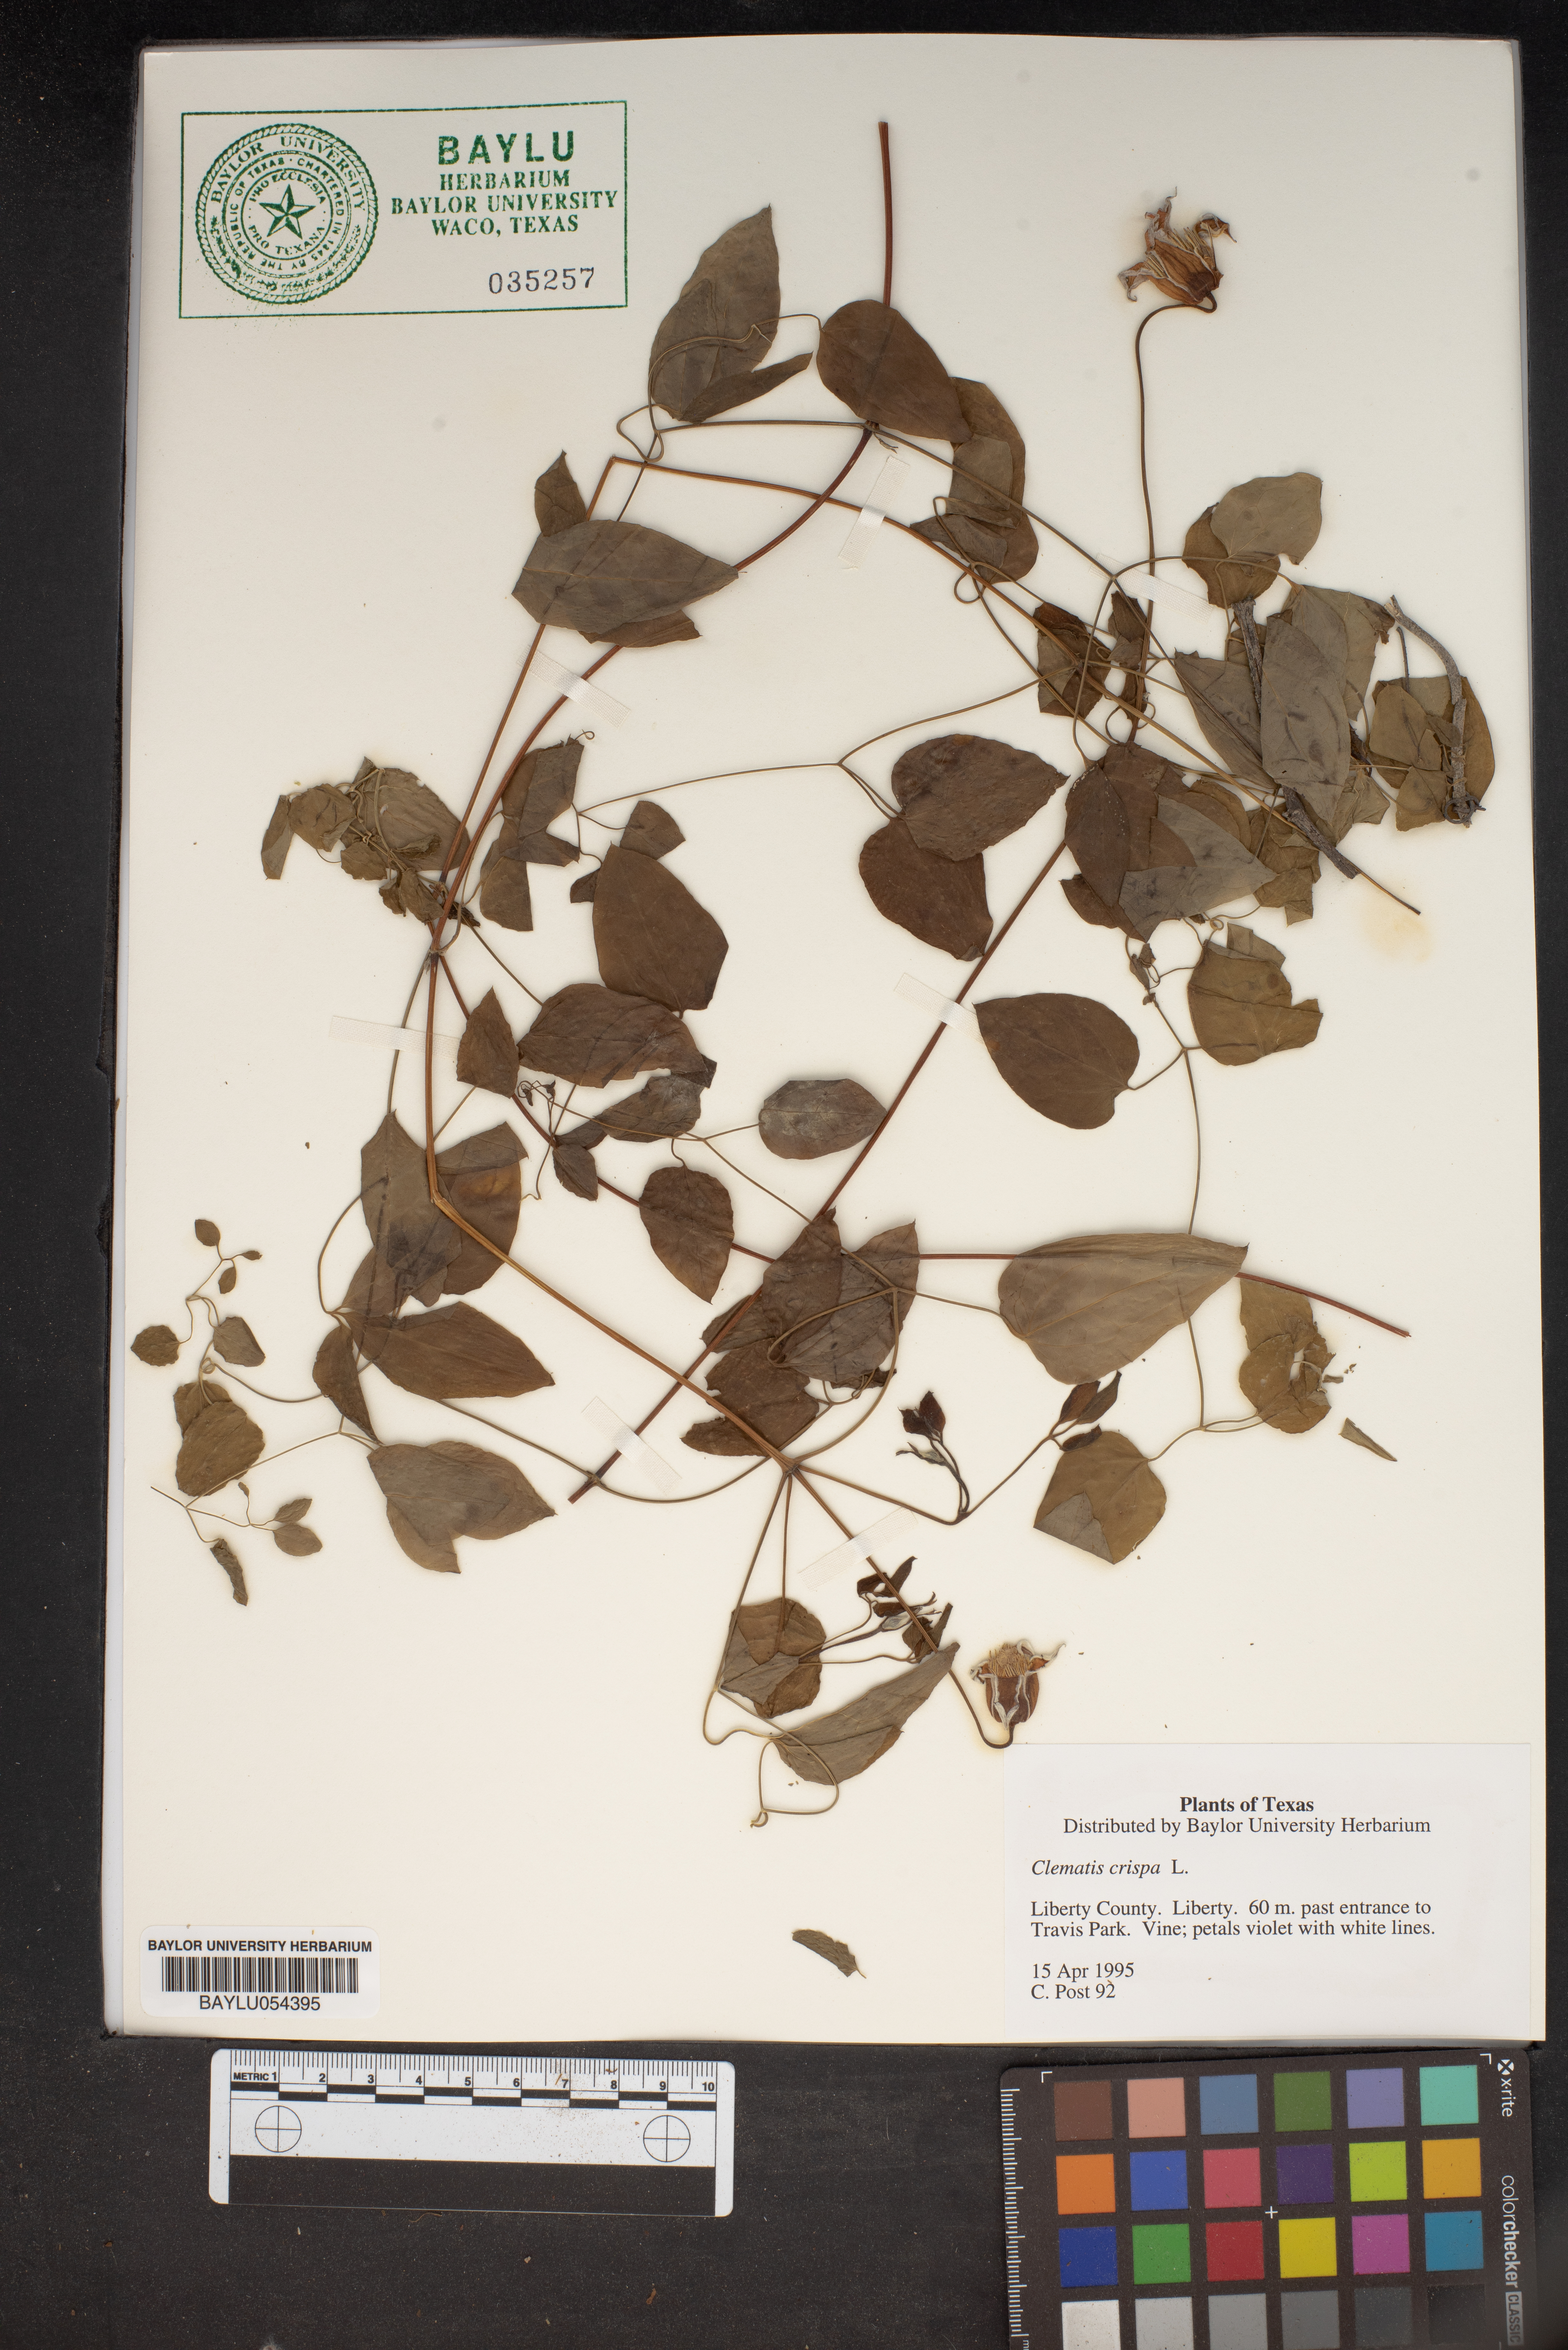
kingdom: Plantae
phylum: Tracheophyta
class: Magnoliopsida
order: Ranunculales
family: Ranunculaceae
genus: Clematis
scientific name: Clematis crispa
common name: Curly clematis
